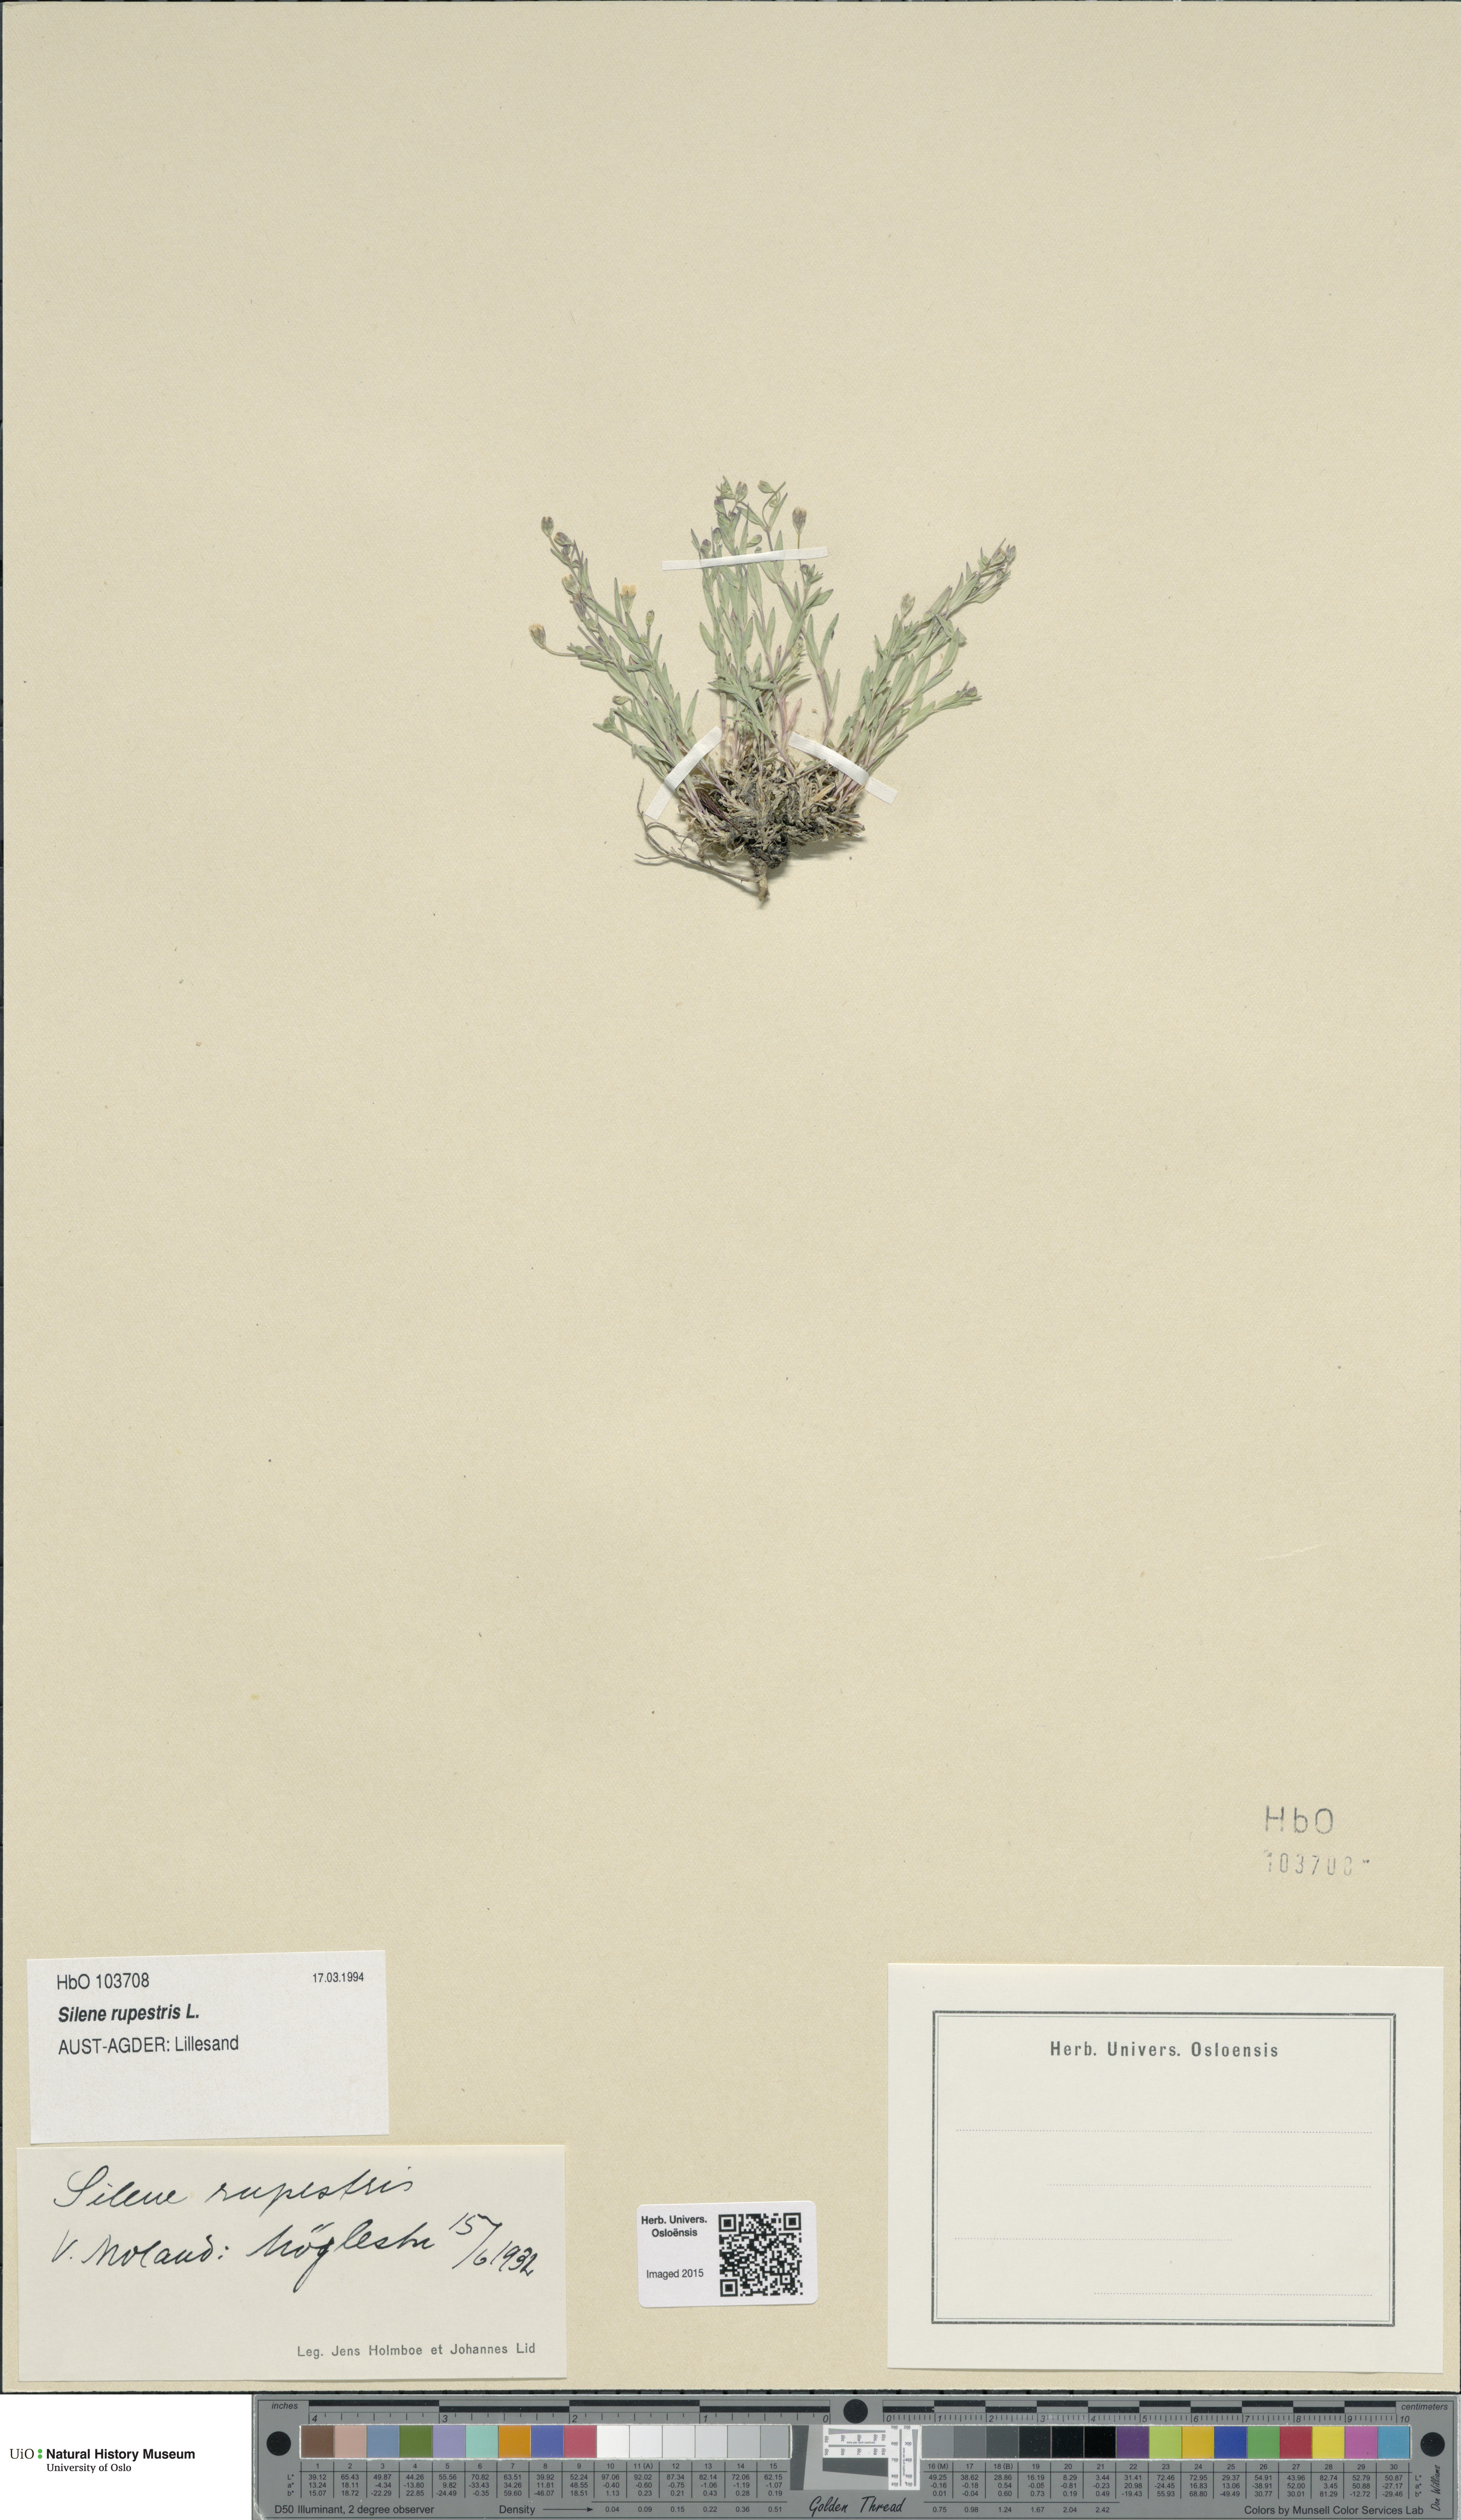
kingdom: Plantae
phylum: Tracheophyta
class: Magnoliopsida
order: Caryophyllales
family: Caryophyllaceae
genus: Atocion
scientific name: Atocion rupestre
